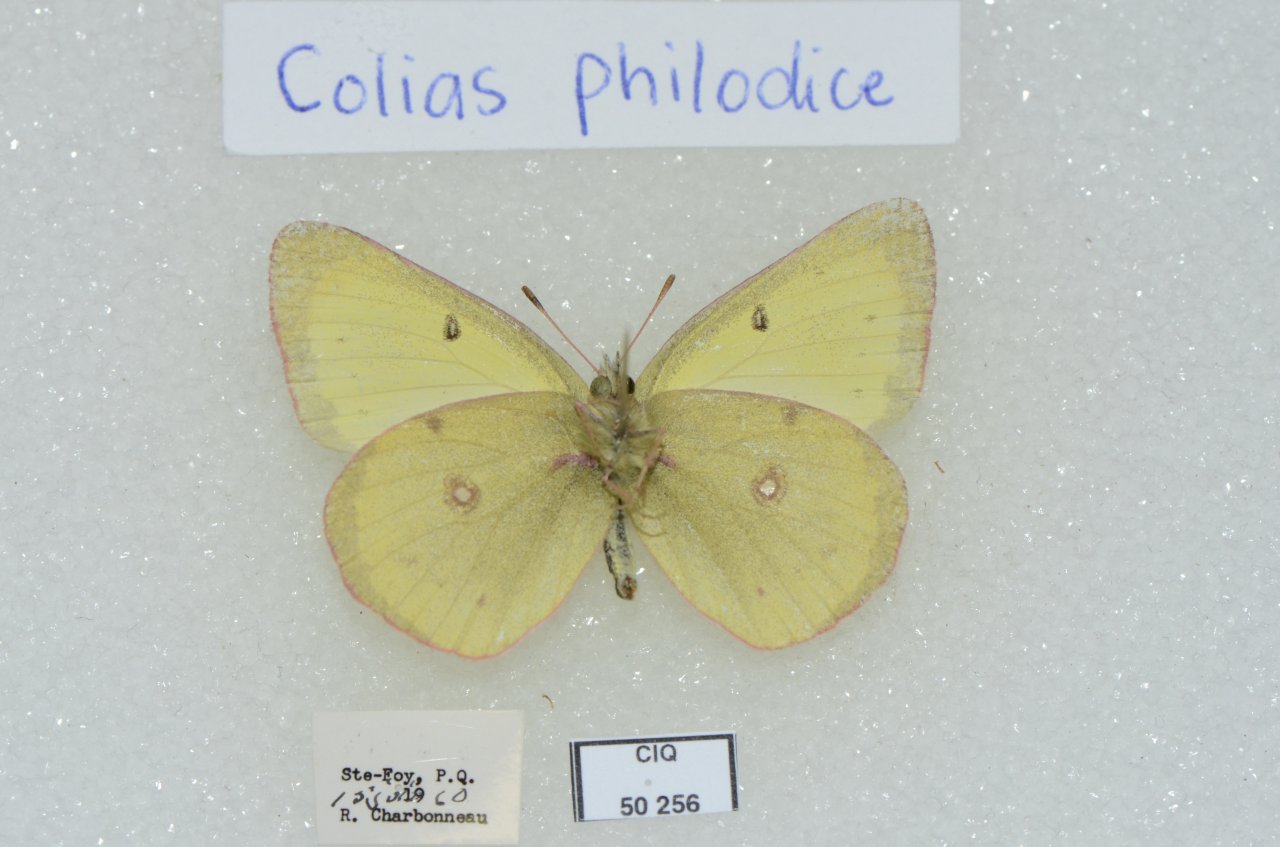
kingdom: Animalia
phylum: Arthropoda
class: Insecta
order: Lepidoptera
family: Pieridae
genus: Colias
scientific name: Colias philodice
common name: Clouded Sulphur
